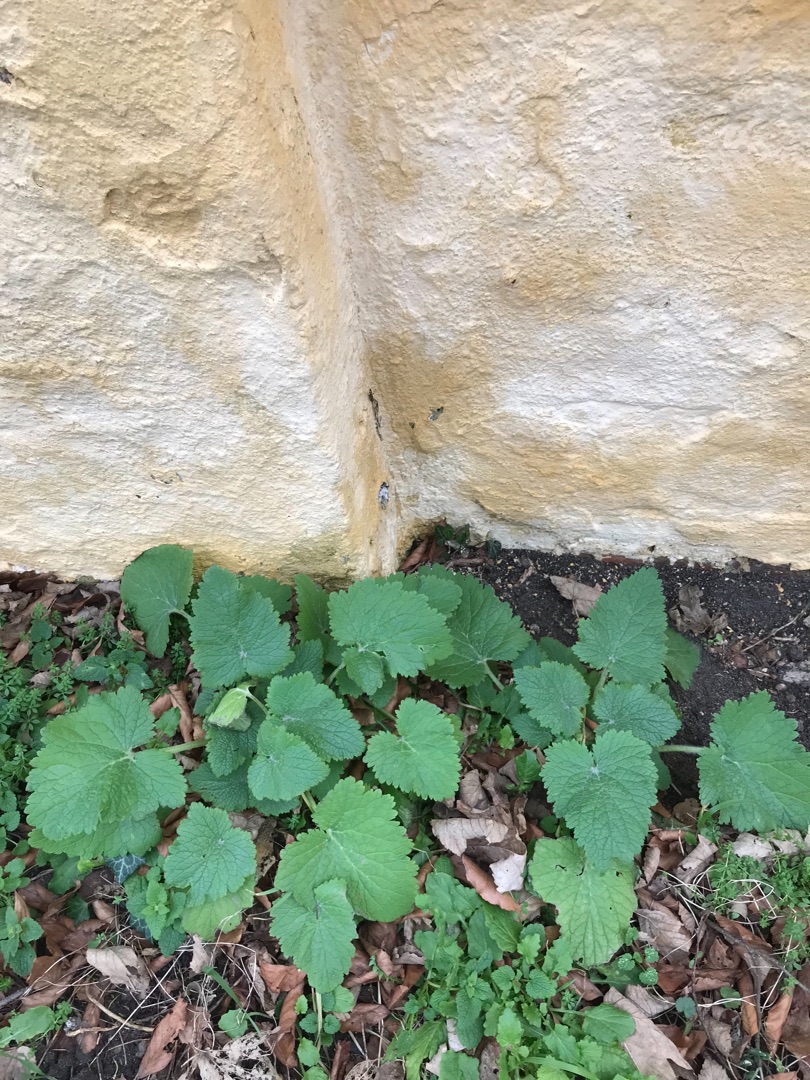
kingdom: Plantae
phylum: Tracheophyta
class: Magnoliopsida
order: Lamiales
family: Scrophulariaceae
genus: Scrophularia
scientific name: Scrophularia vernalis
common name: Vår-brunrod
